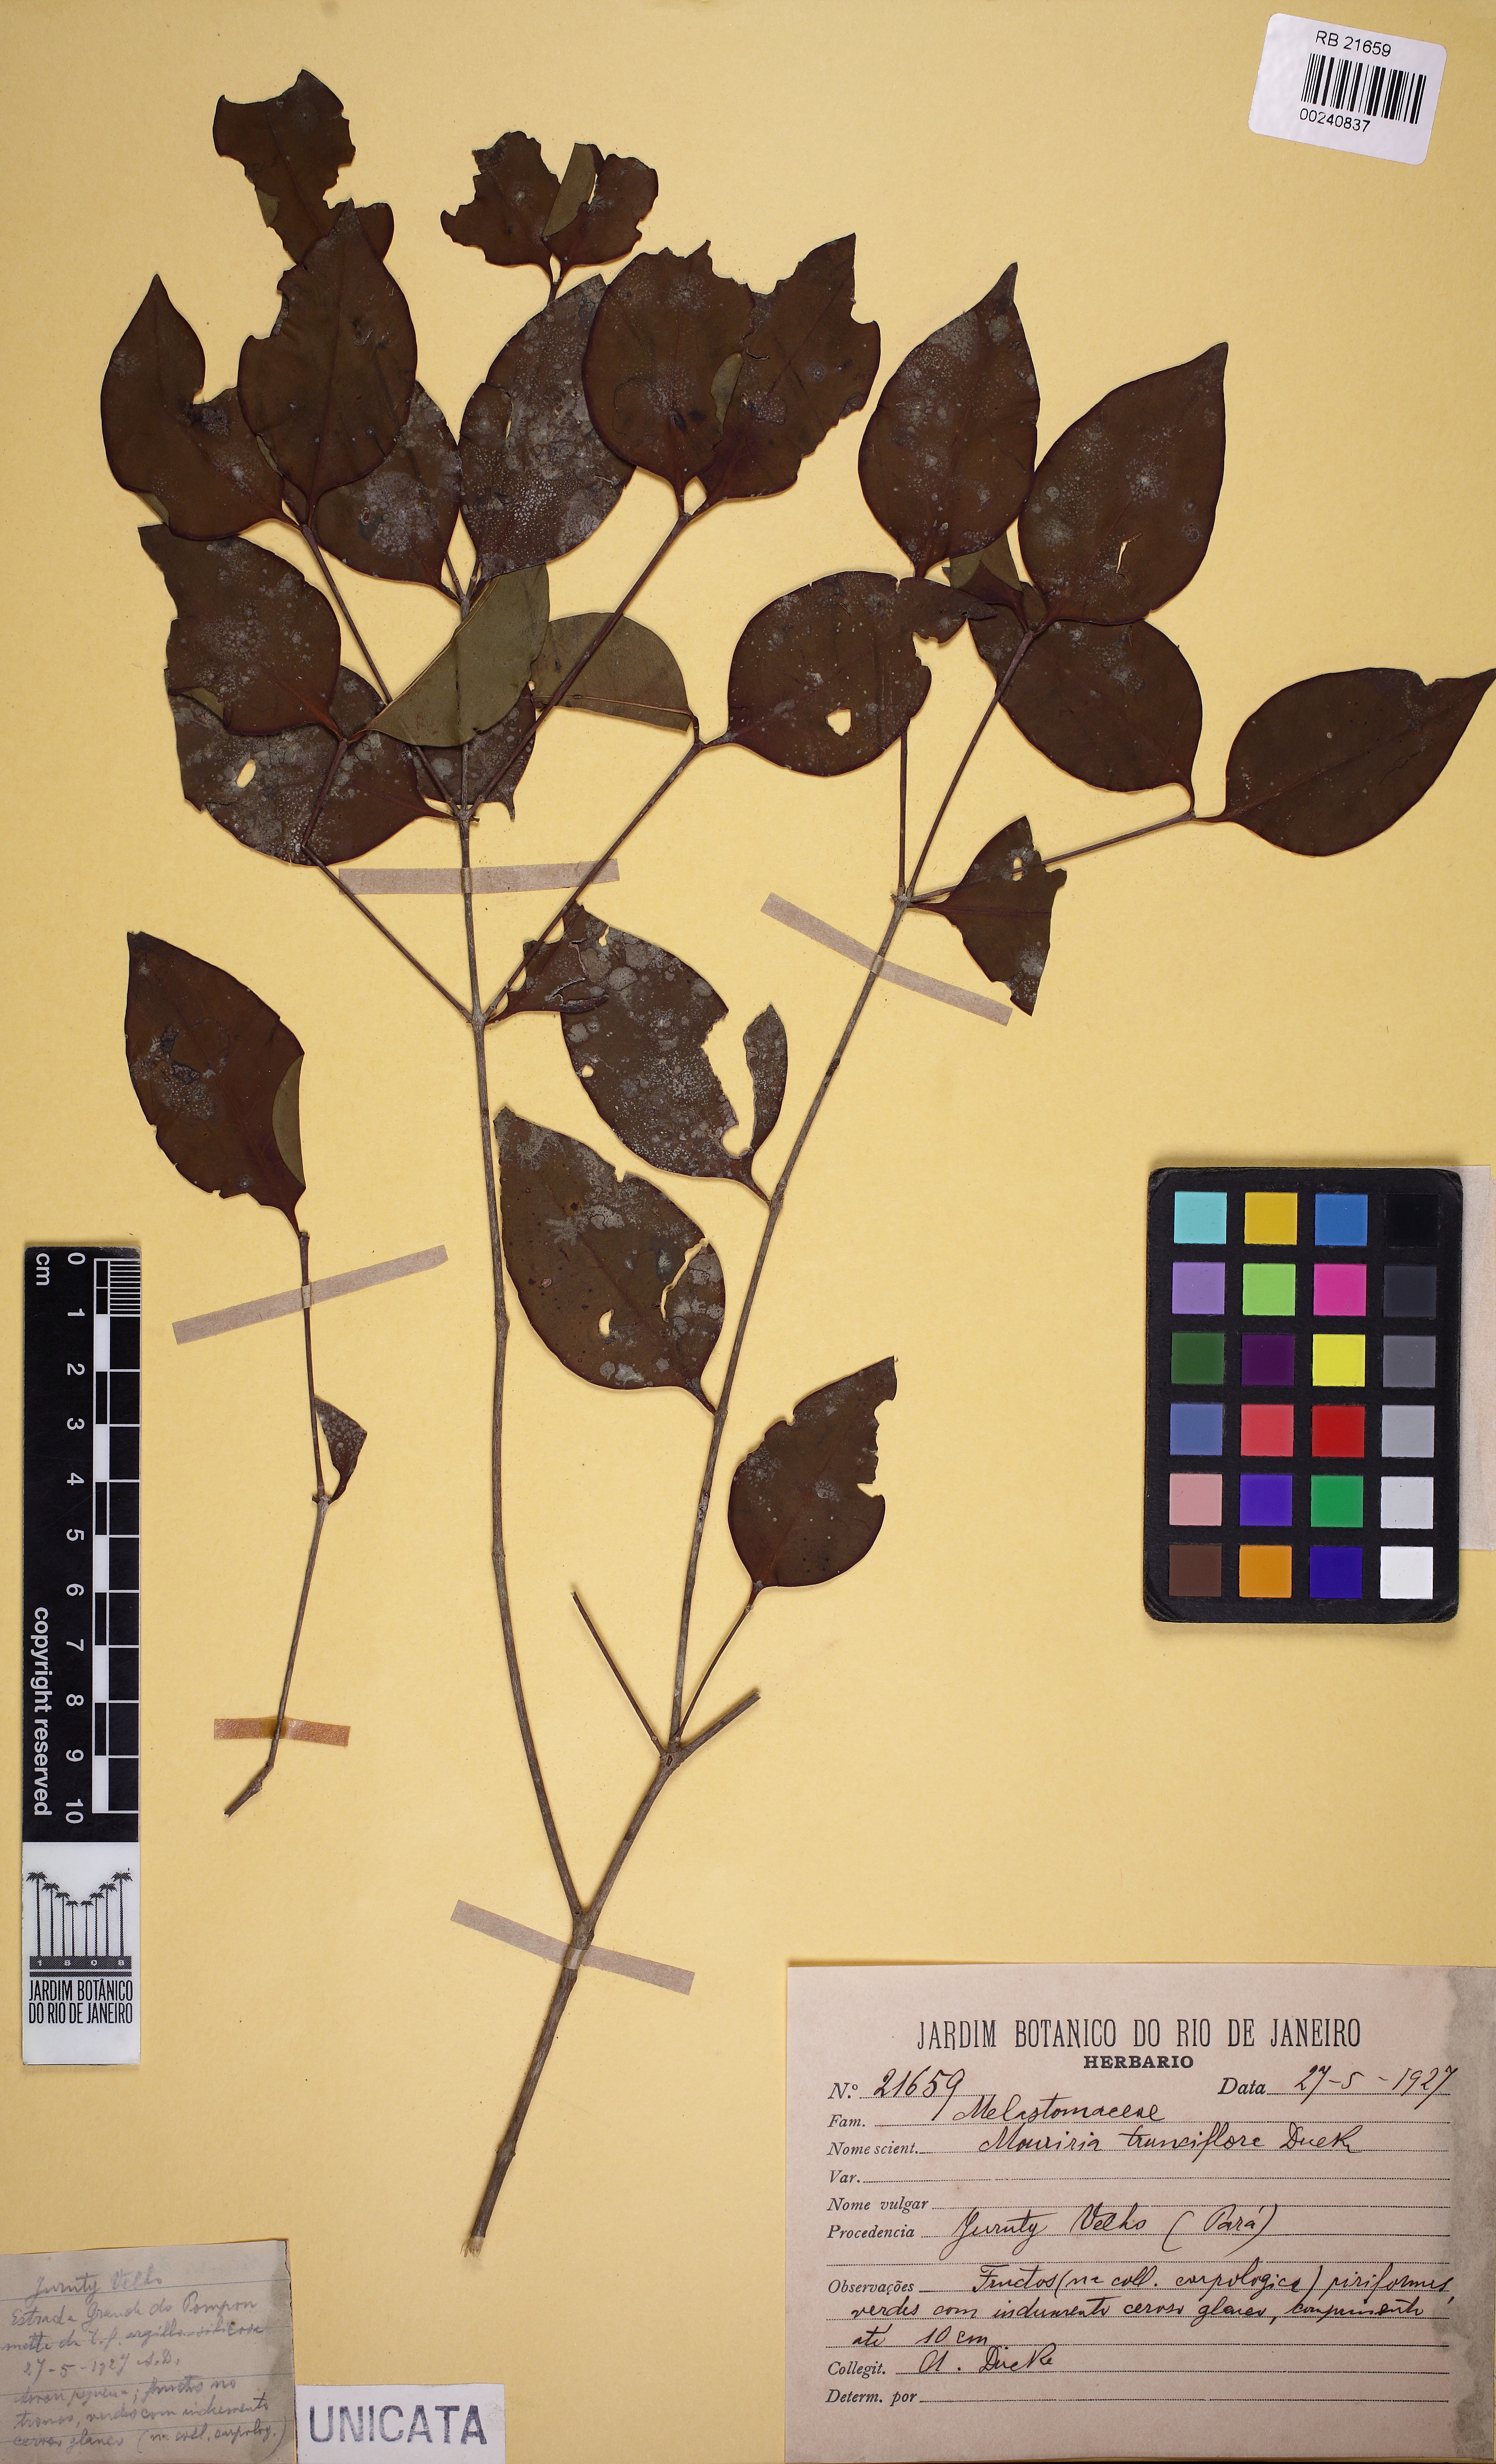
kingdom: Plantae
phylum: Tracheophyta
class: Magnoliopsida
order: Myrtales
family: Melastomataceae
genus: Mouriri
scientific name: Mouriri trunciflora
